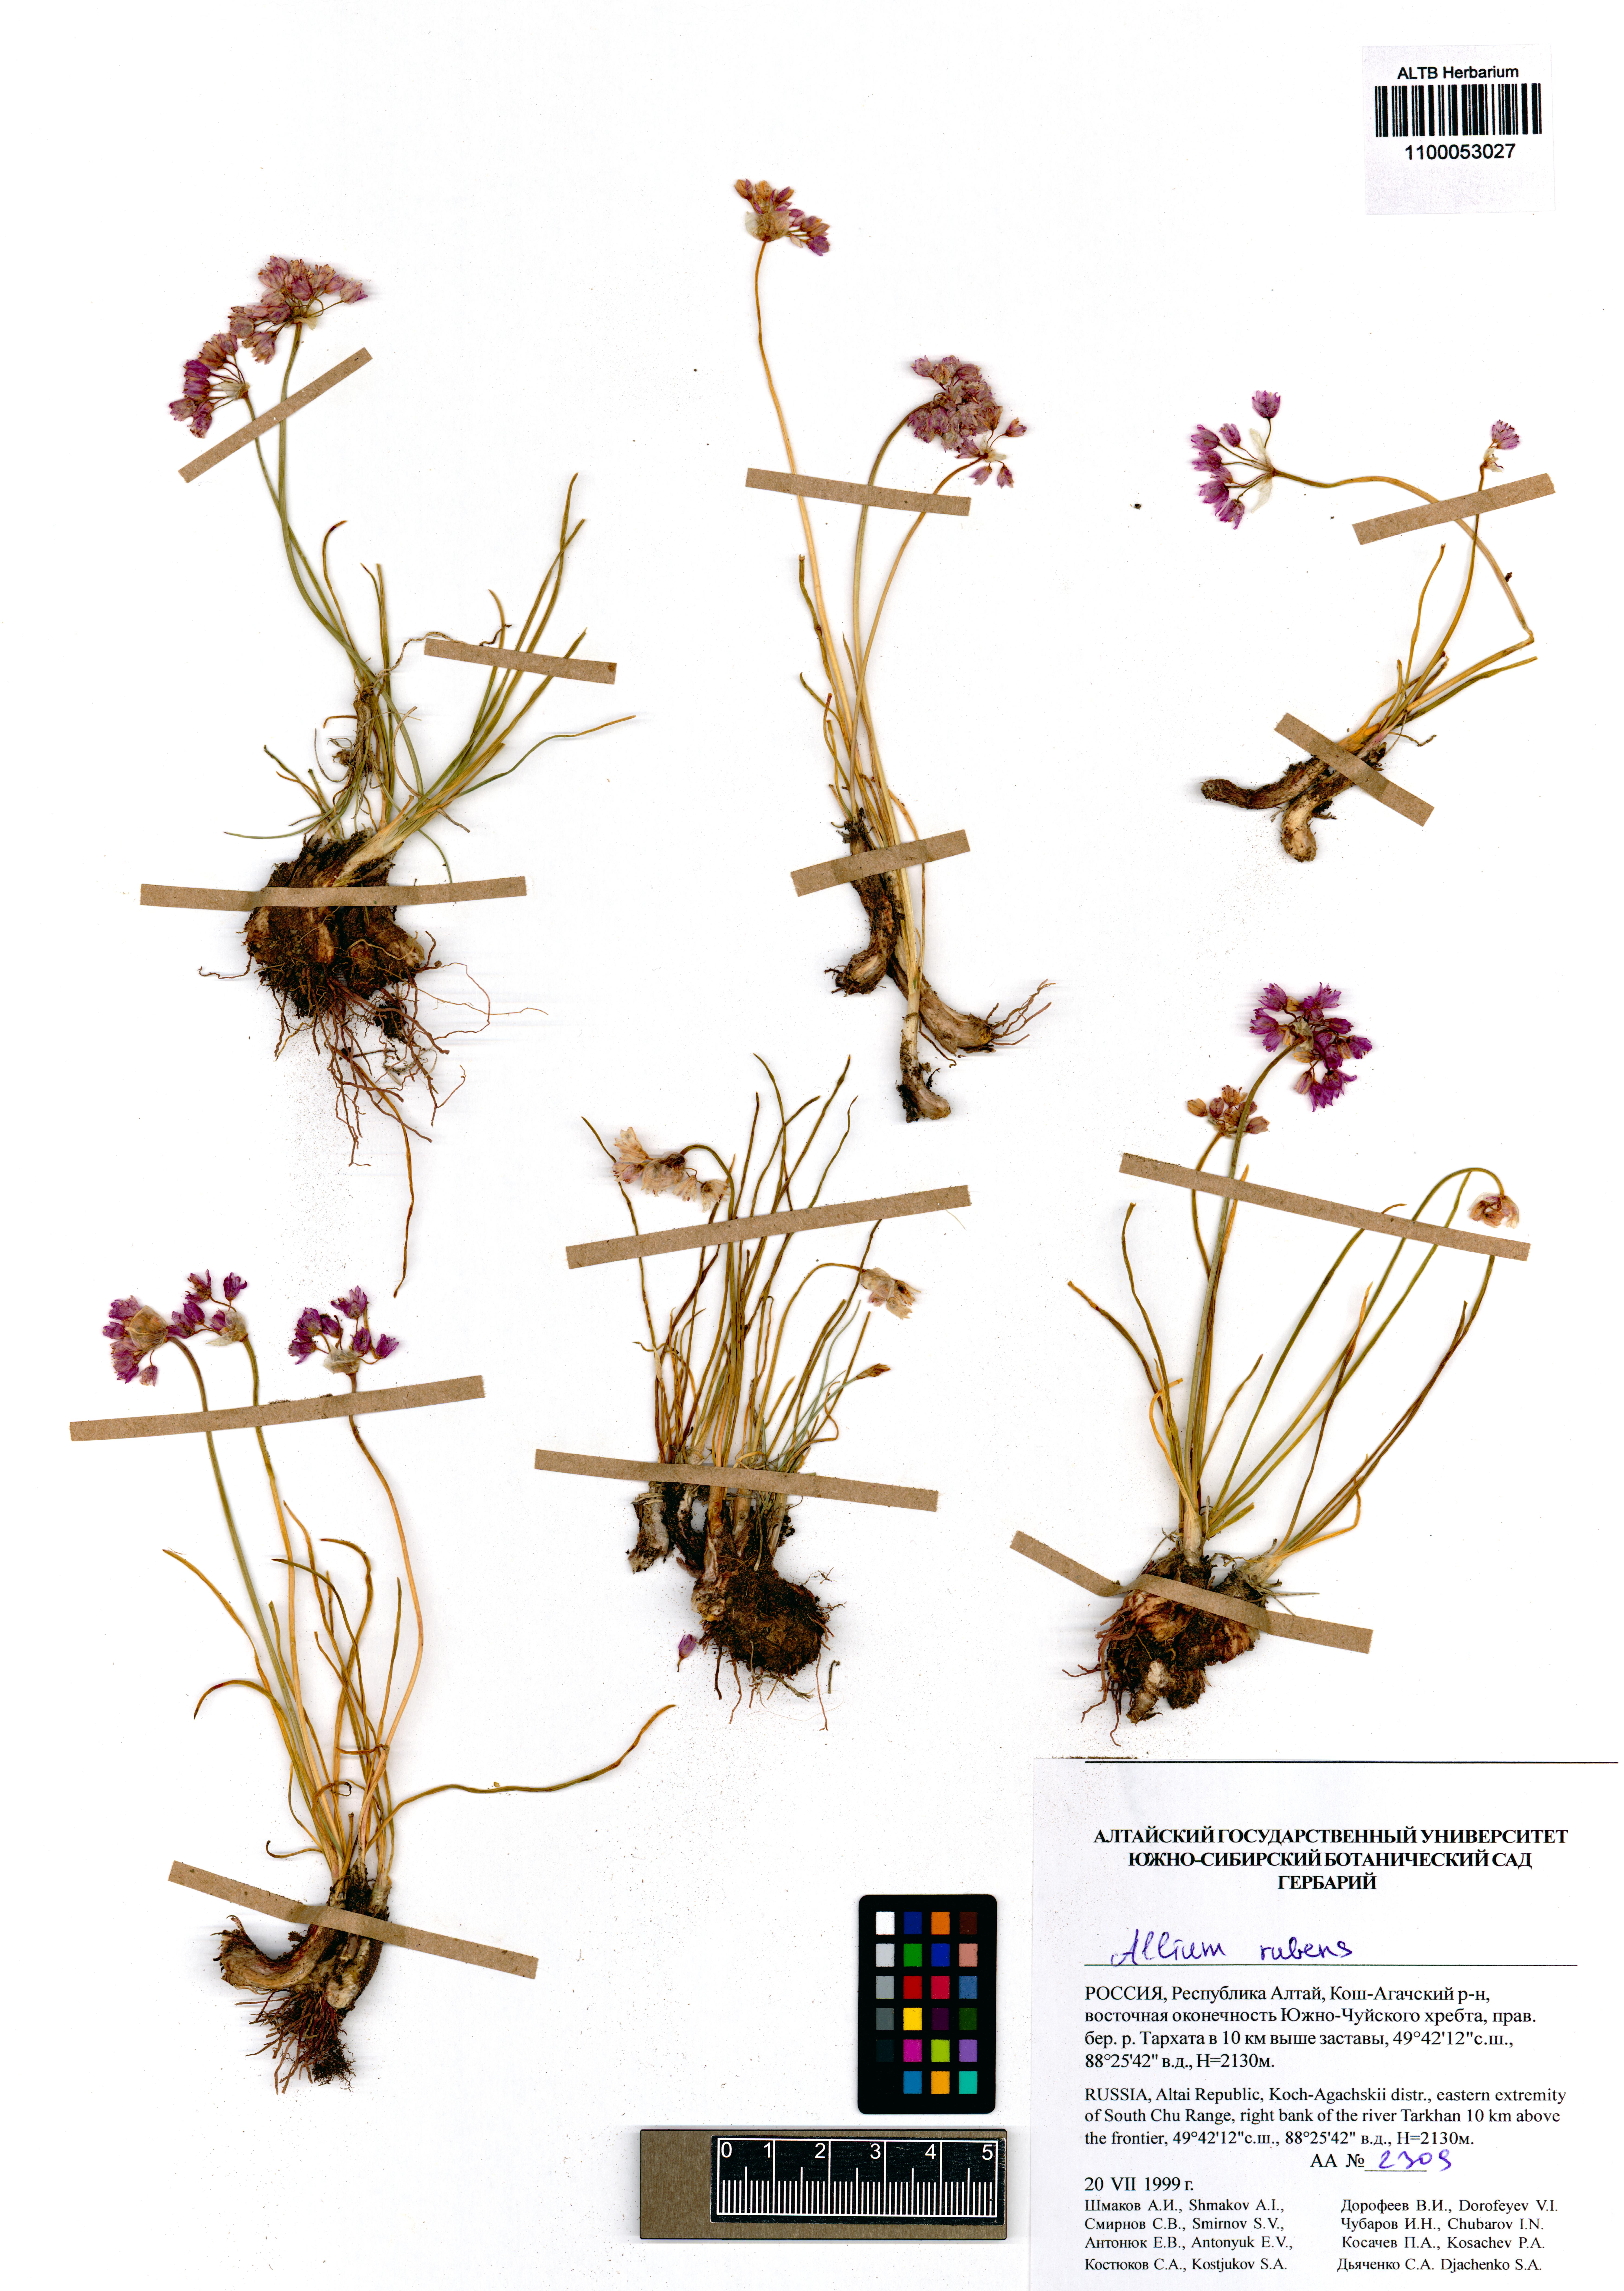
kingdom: Plantae
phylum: Tracheophyta
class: Liliopsida
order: Asparagales
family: Amaryllidaceae
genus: Allium
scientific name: Allium rubens
